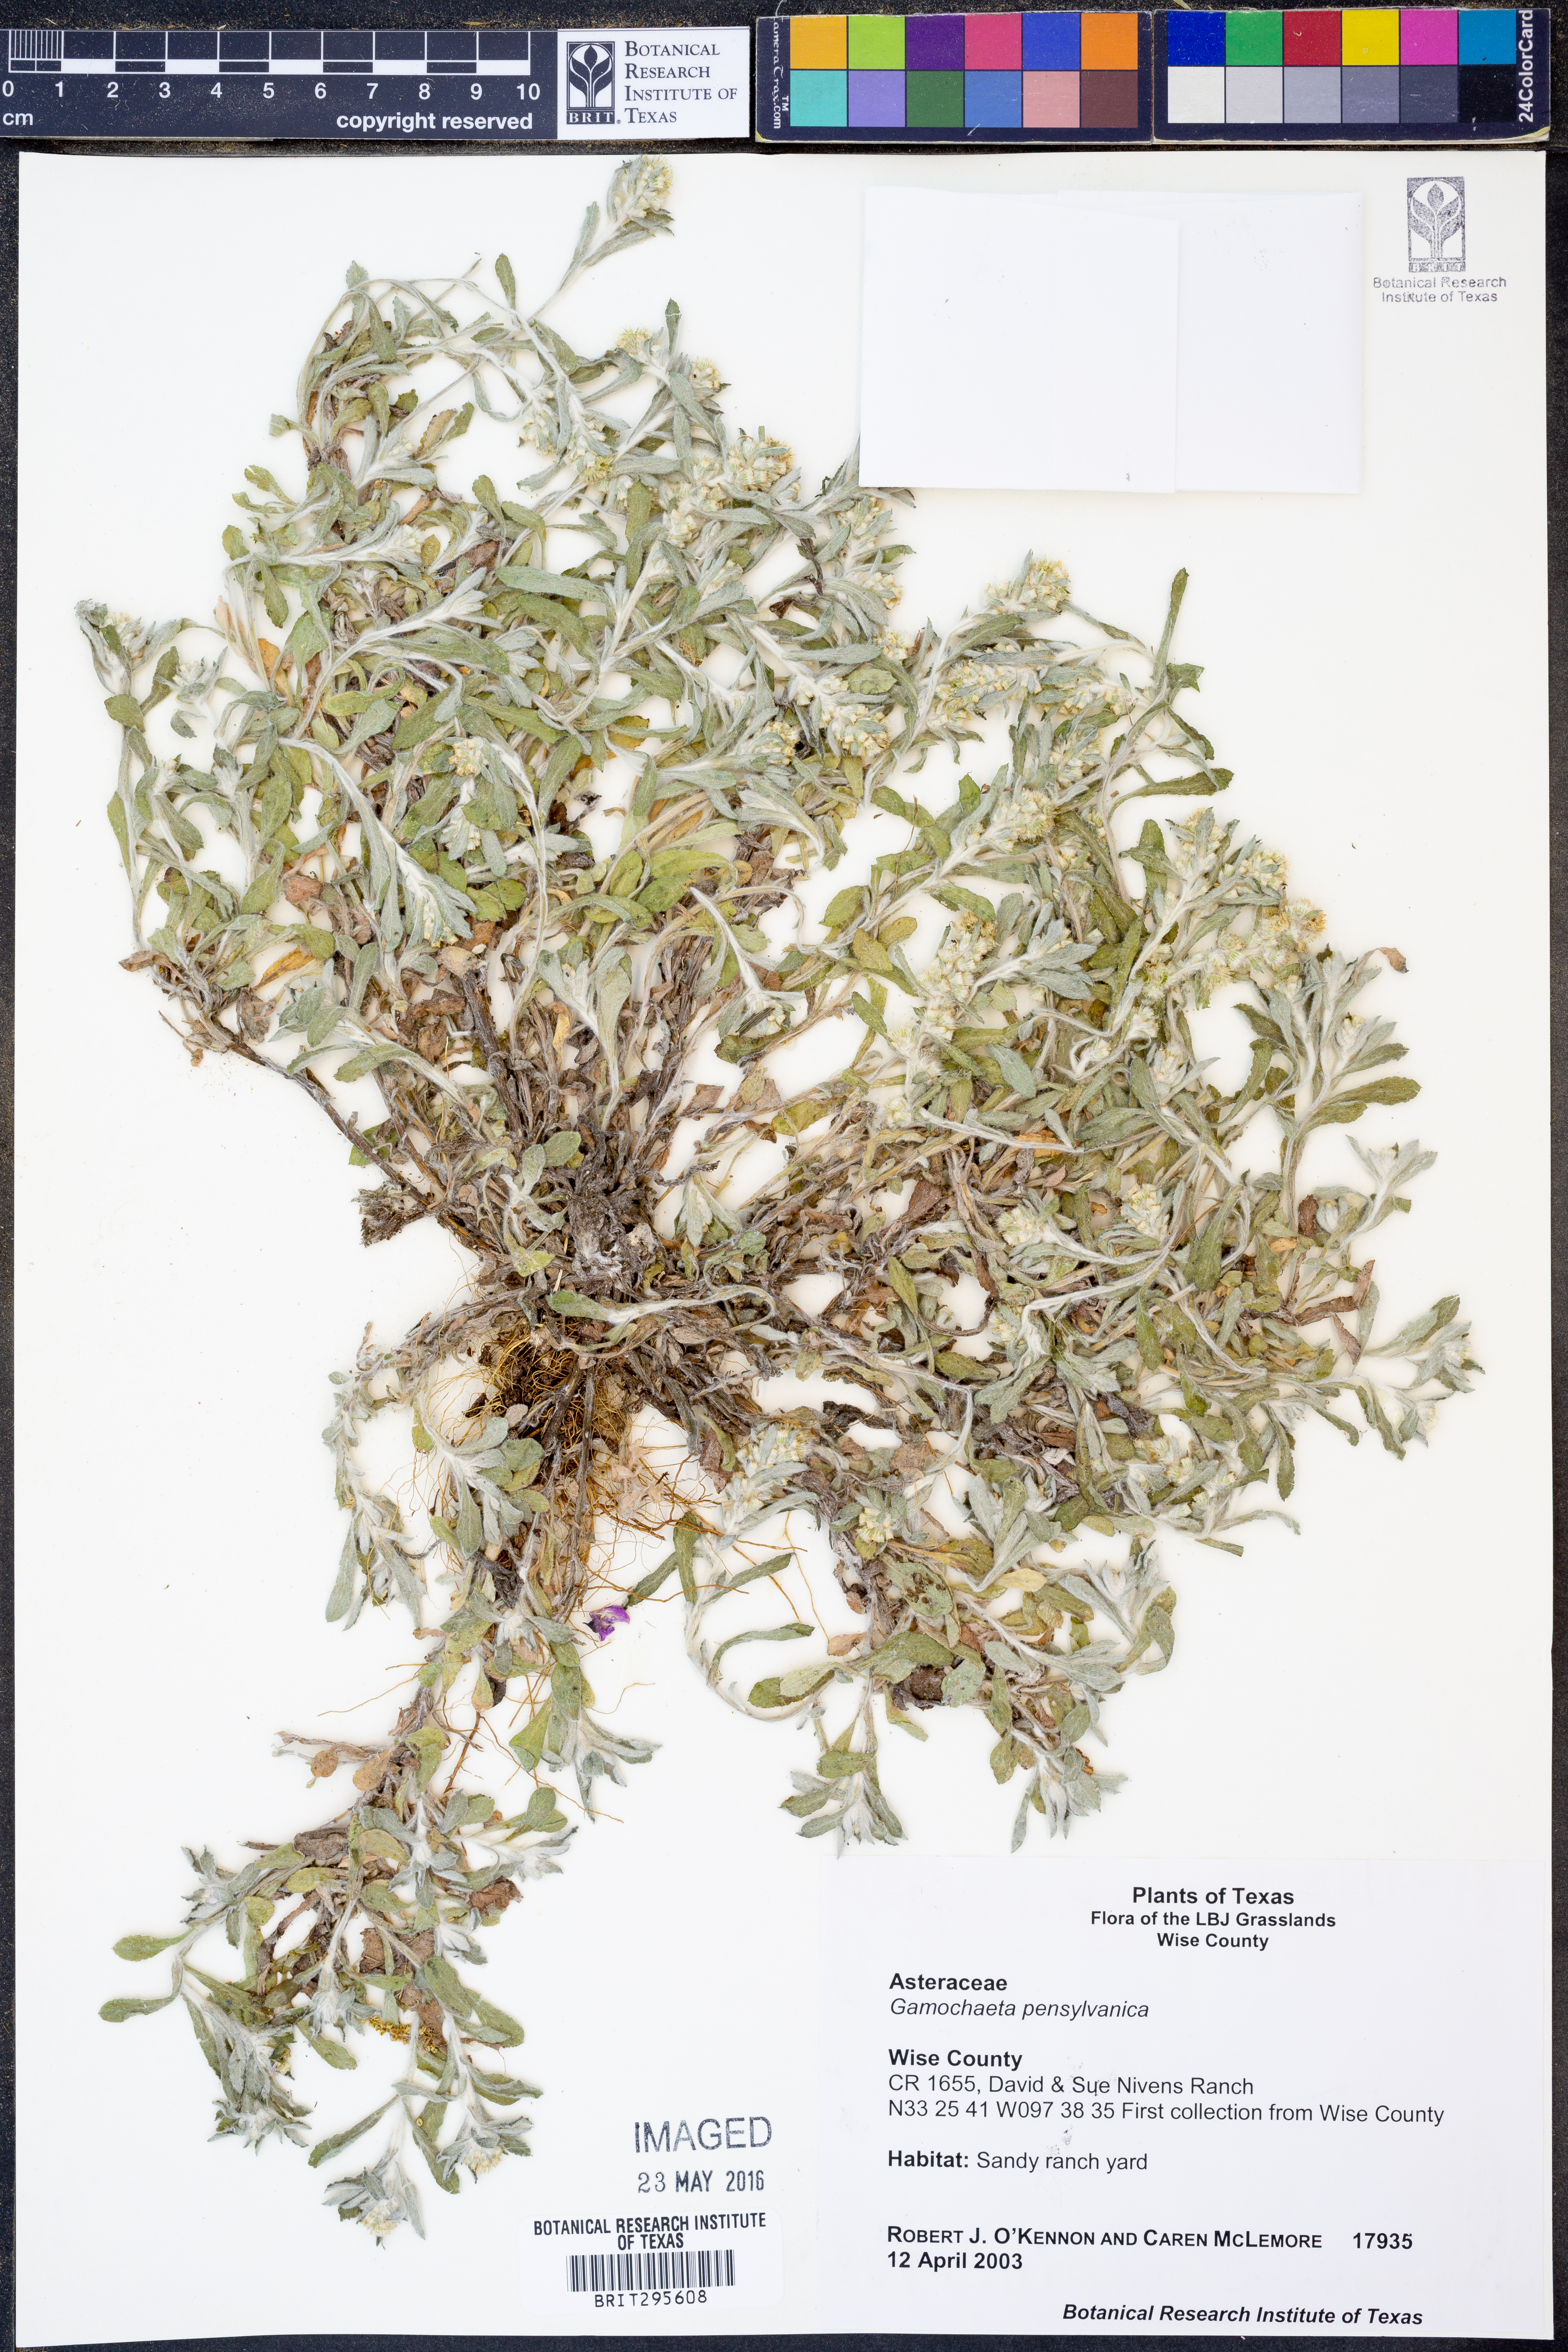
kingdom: Plantae
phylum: Tracheophyta
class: Magnoliopsida
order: Asterales
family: Asteraceae
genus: Gamochaeta
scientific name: Gamochaeta pensylvanica
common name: Pennsylvania everlasting
